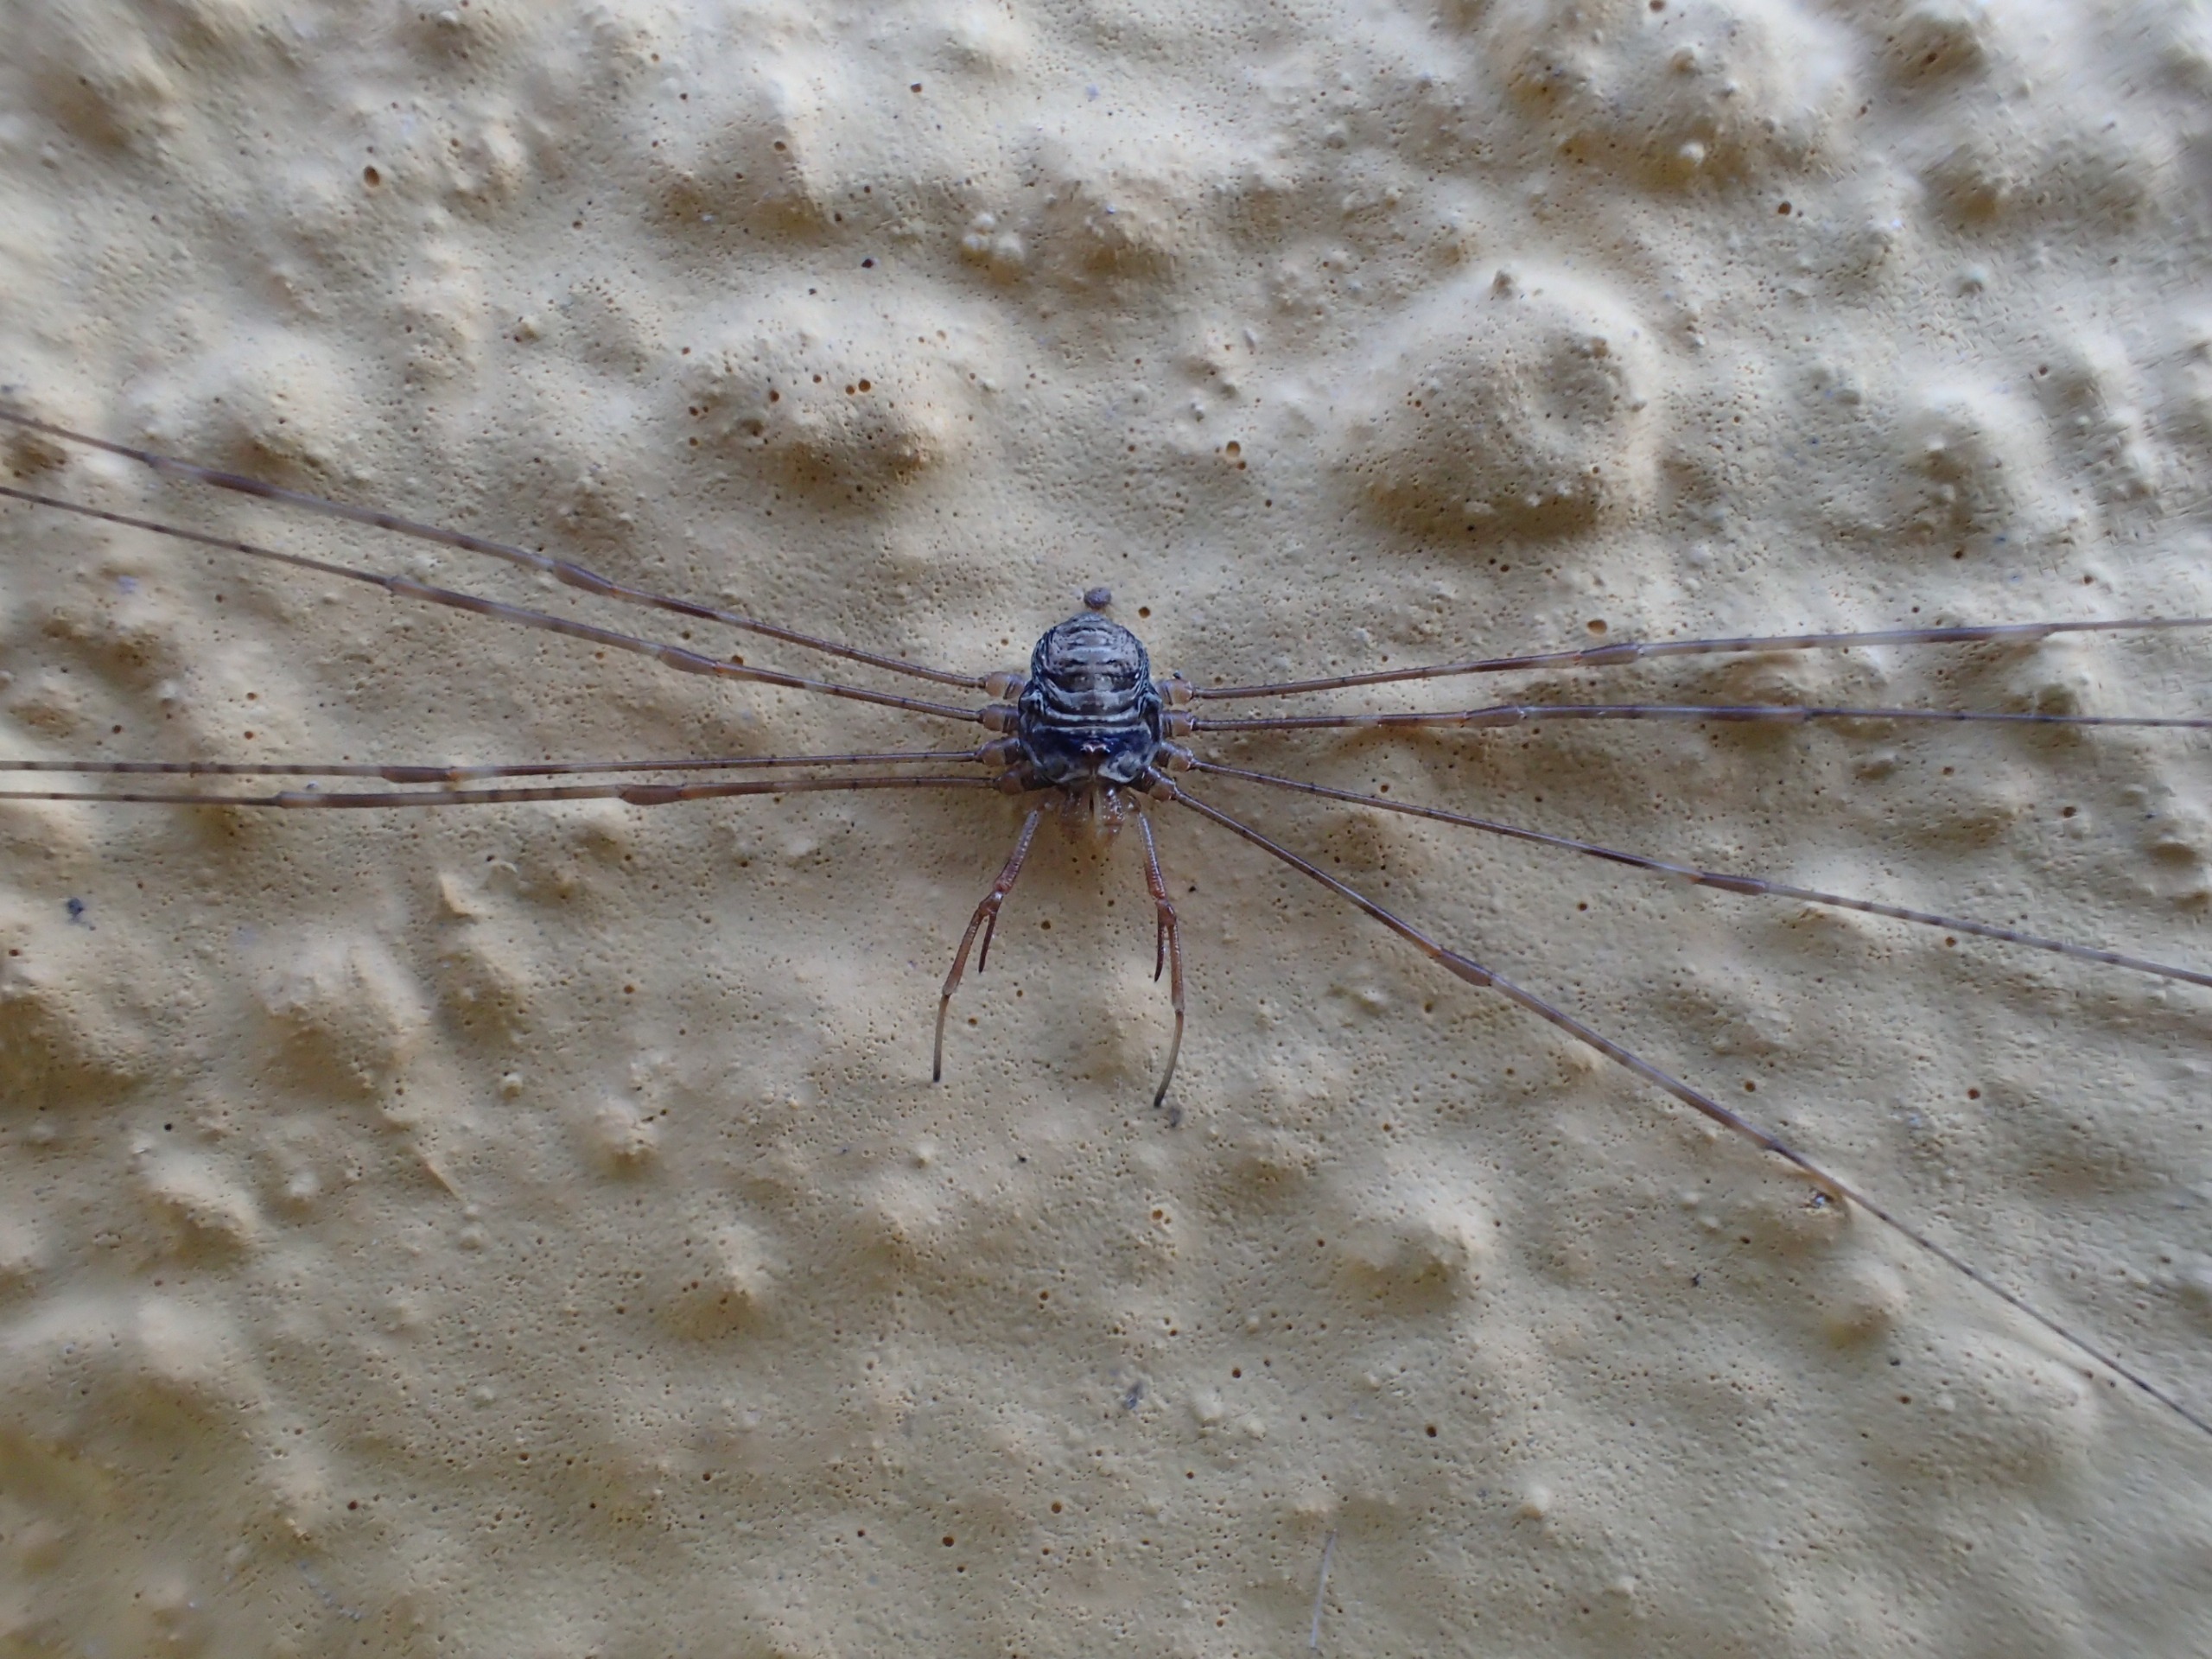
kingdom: Animalia
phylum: Arthropoda
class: Arachnida
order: Opiliones
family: Phalangiidae
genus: Dicranopalpus
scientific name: Dicranopalpus ramosus
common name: Gaffelmejer
